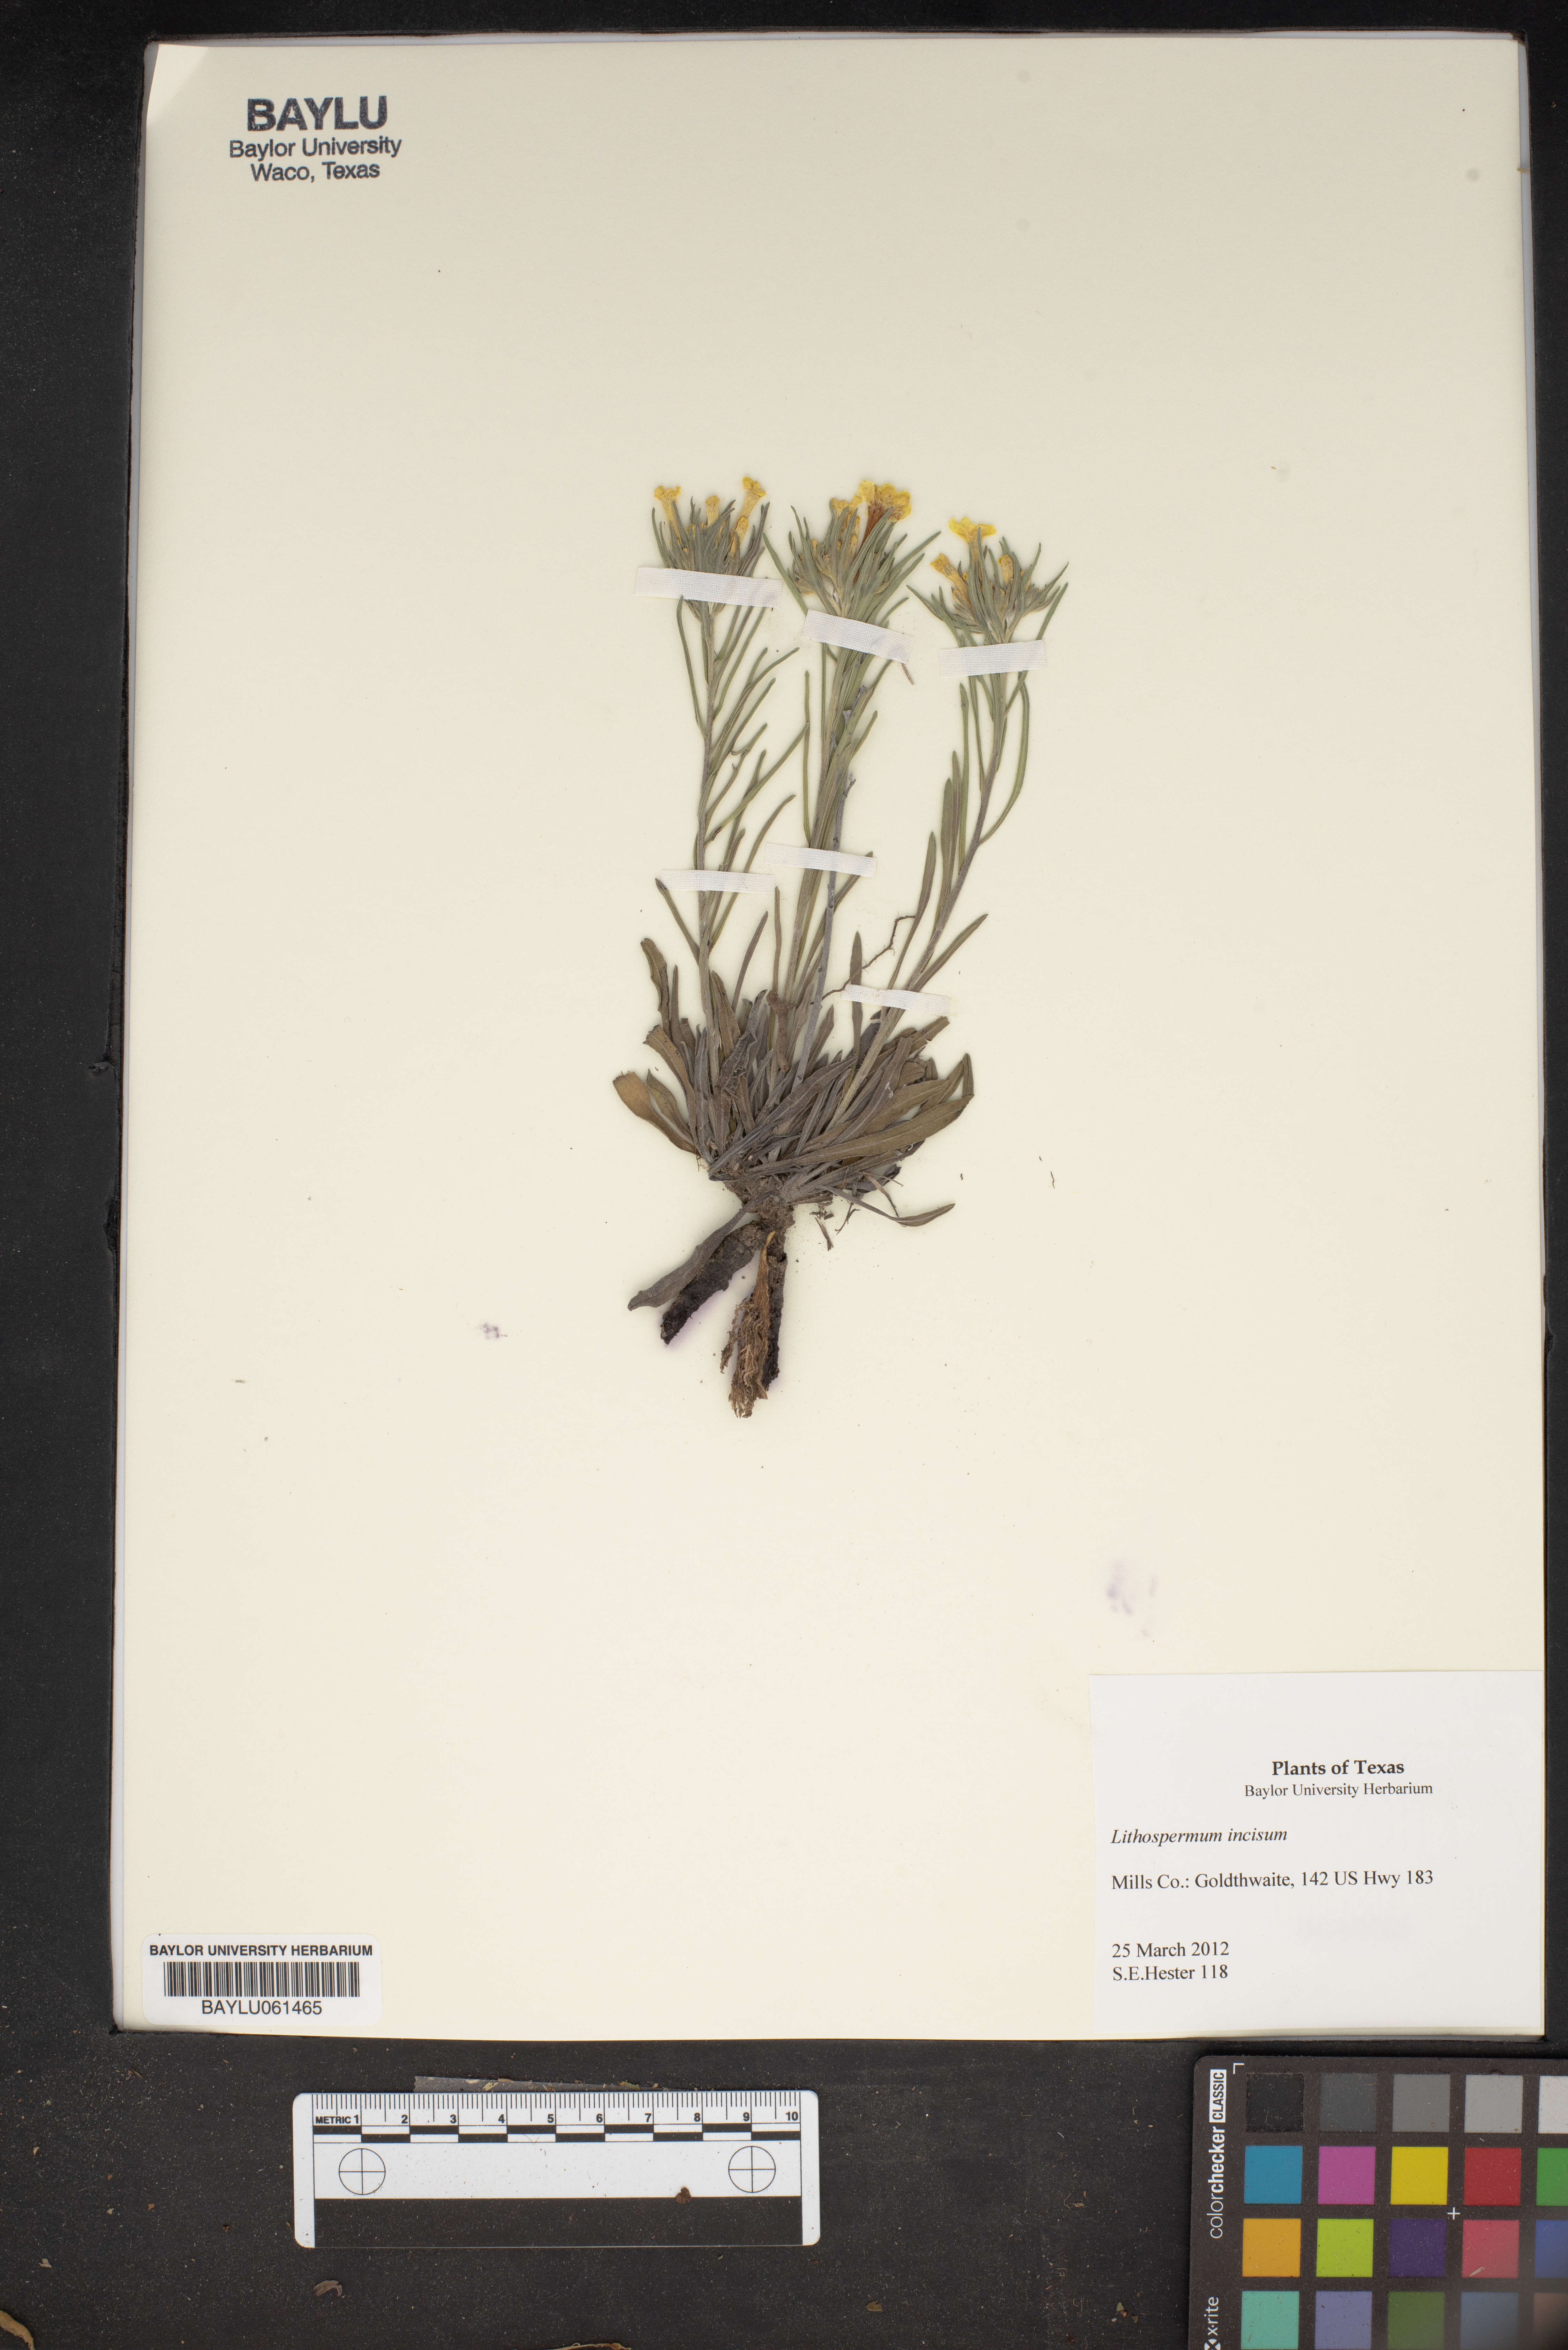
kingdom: Plantae
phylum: Tracheophyta
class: Magnoliopsida
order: Boraginales
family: Boraginaceae
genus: Lithospermum
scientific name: Lithospermum incisum
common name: Fringed gromwell
